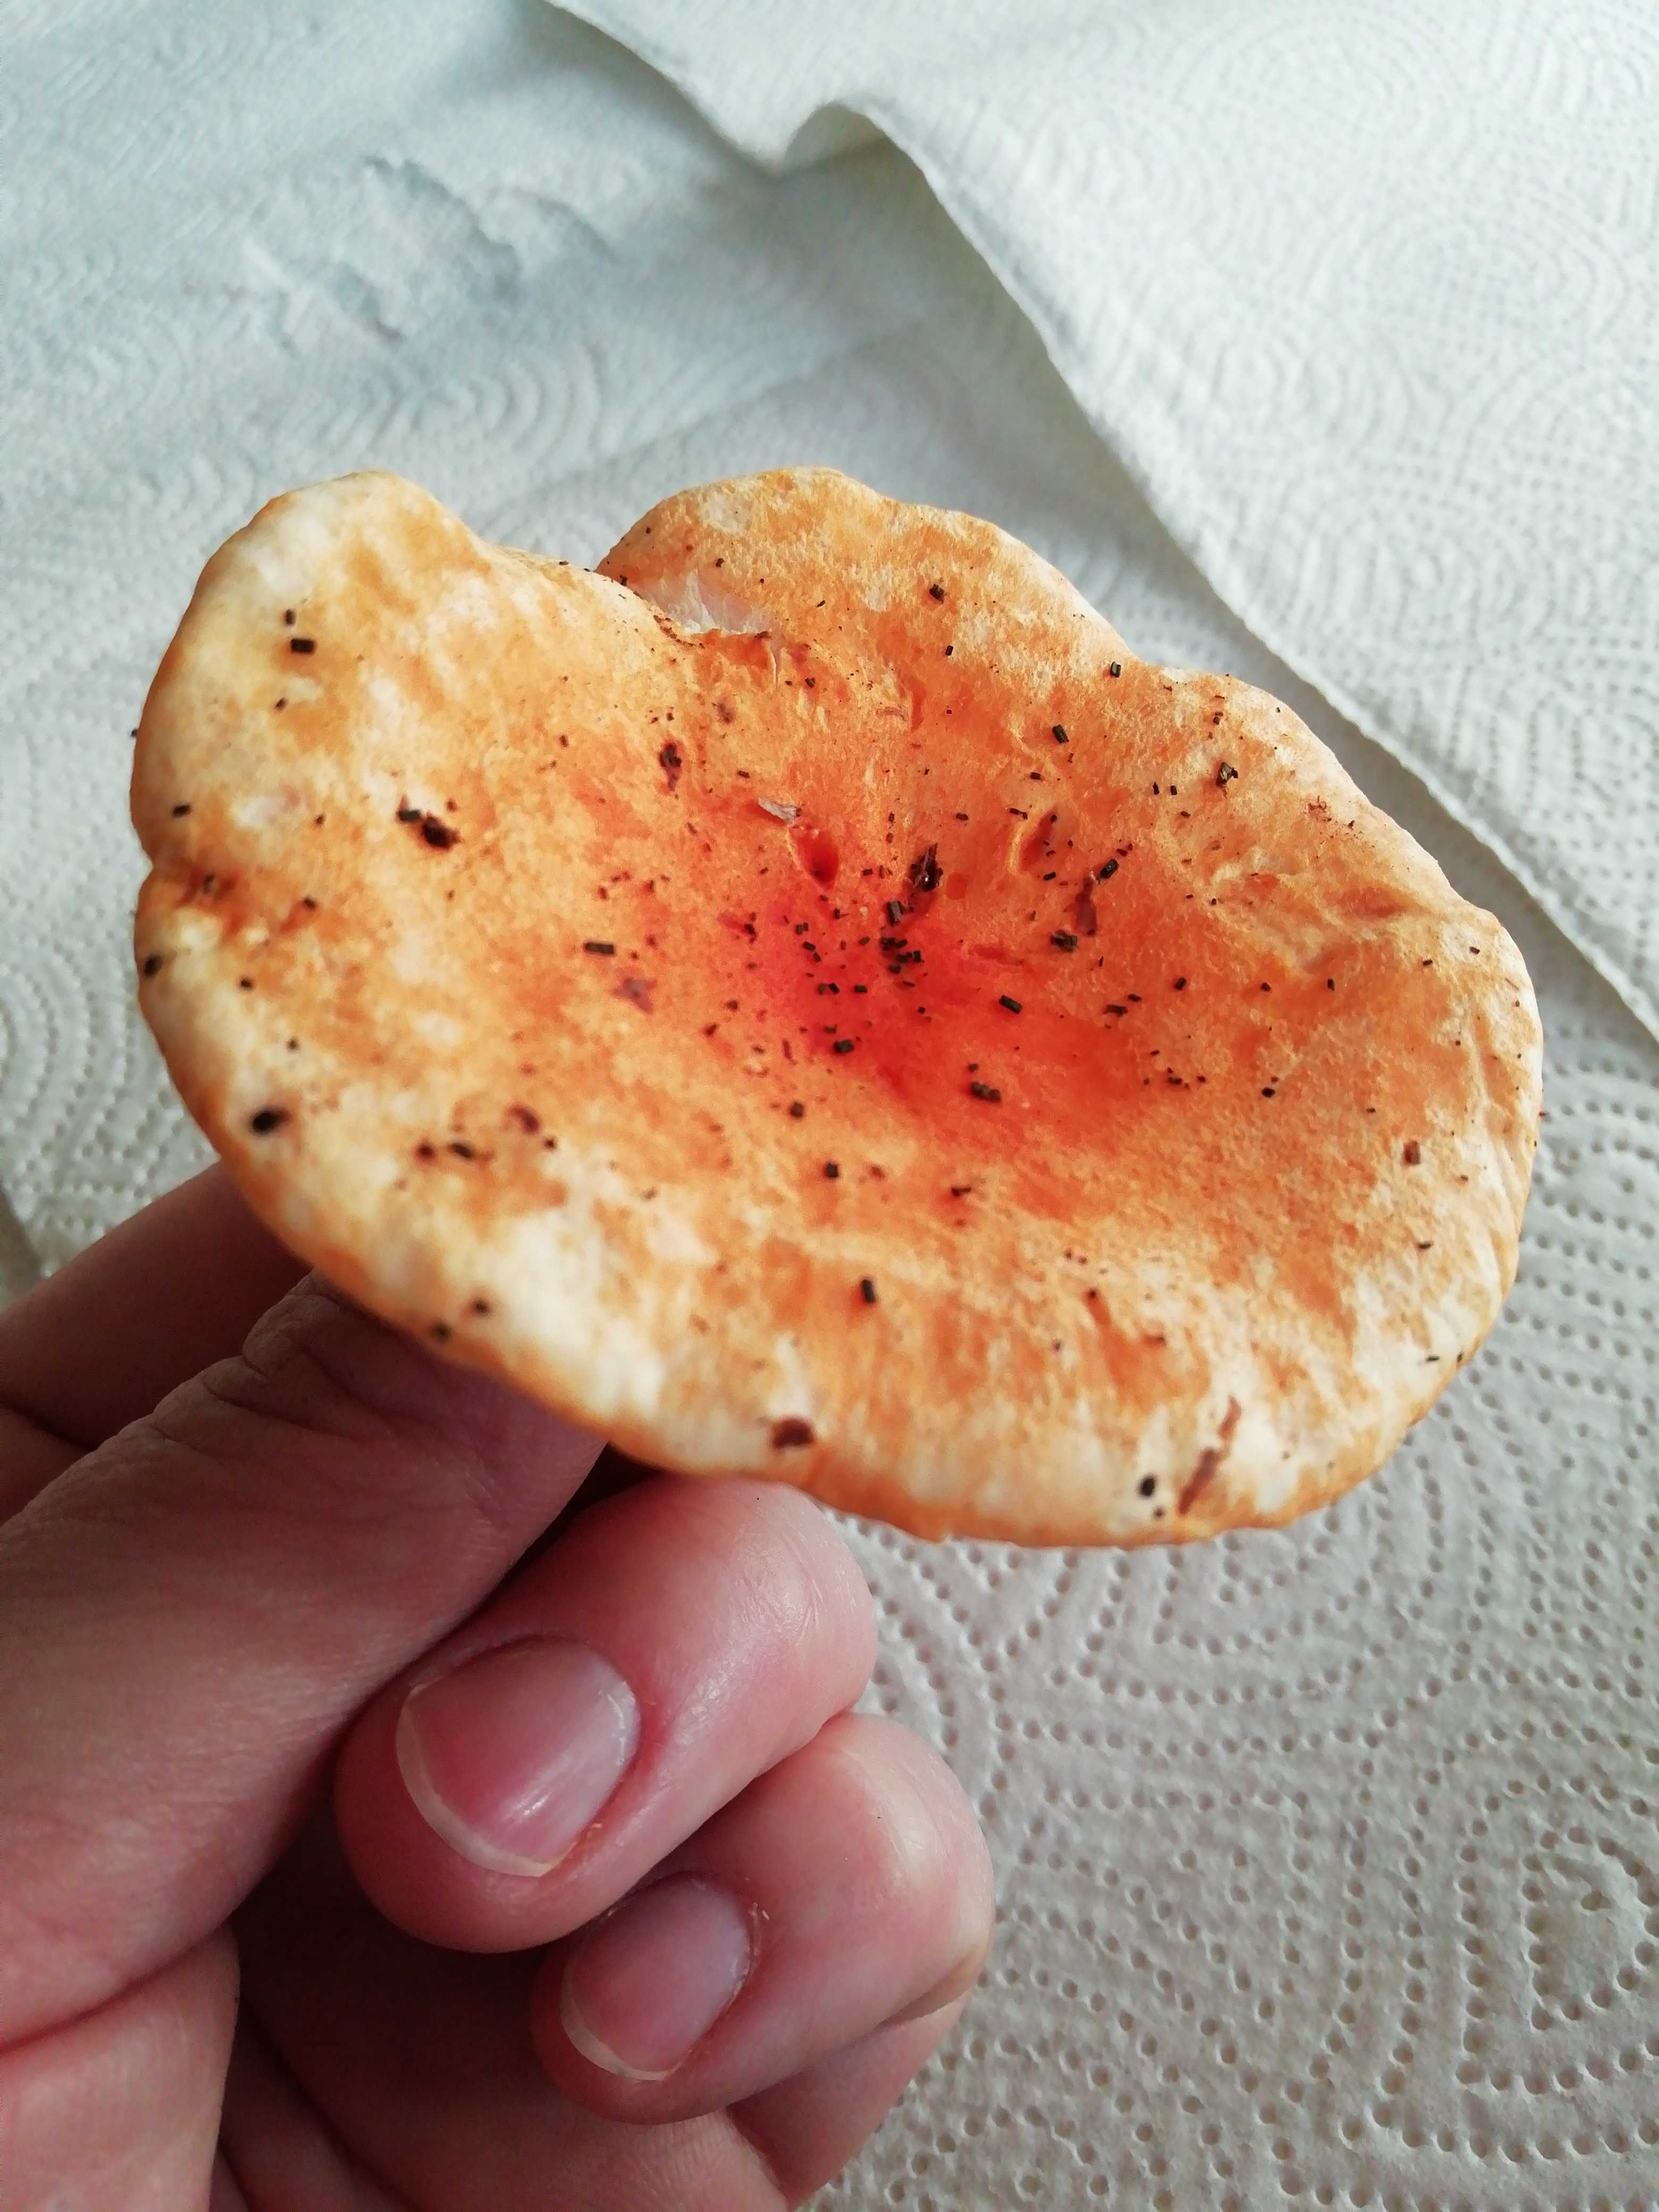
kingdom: Fungi
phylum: Basidiomycota
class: Agaricomycetes
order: Agaricales
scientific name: Agaricales
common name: champignonordenen
